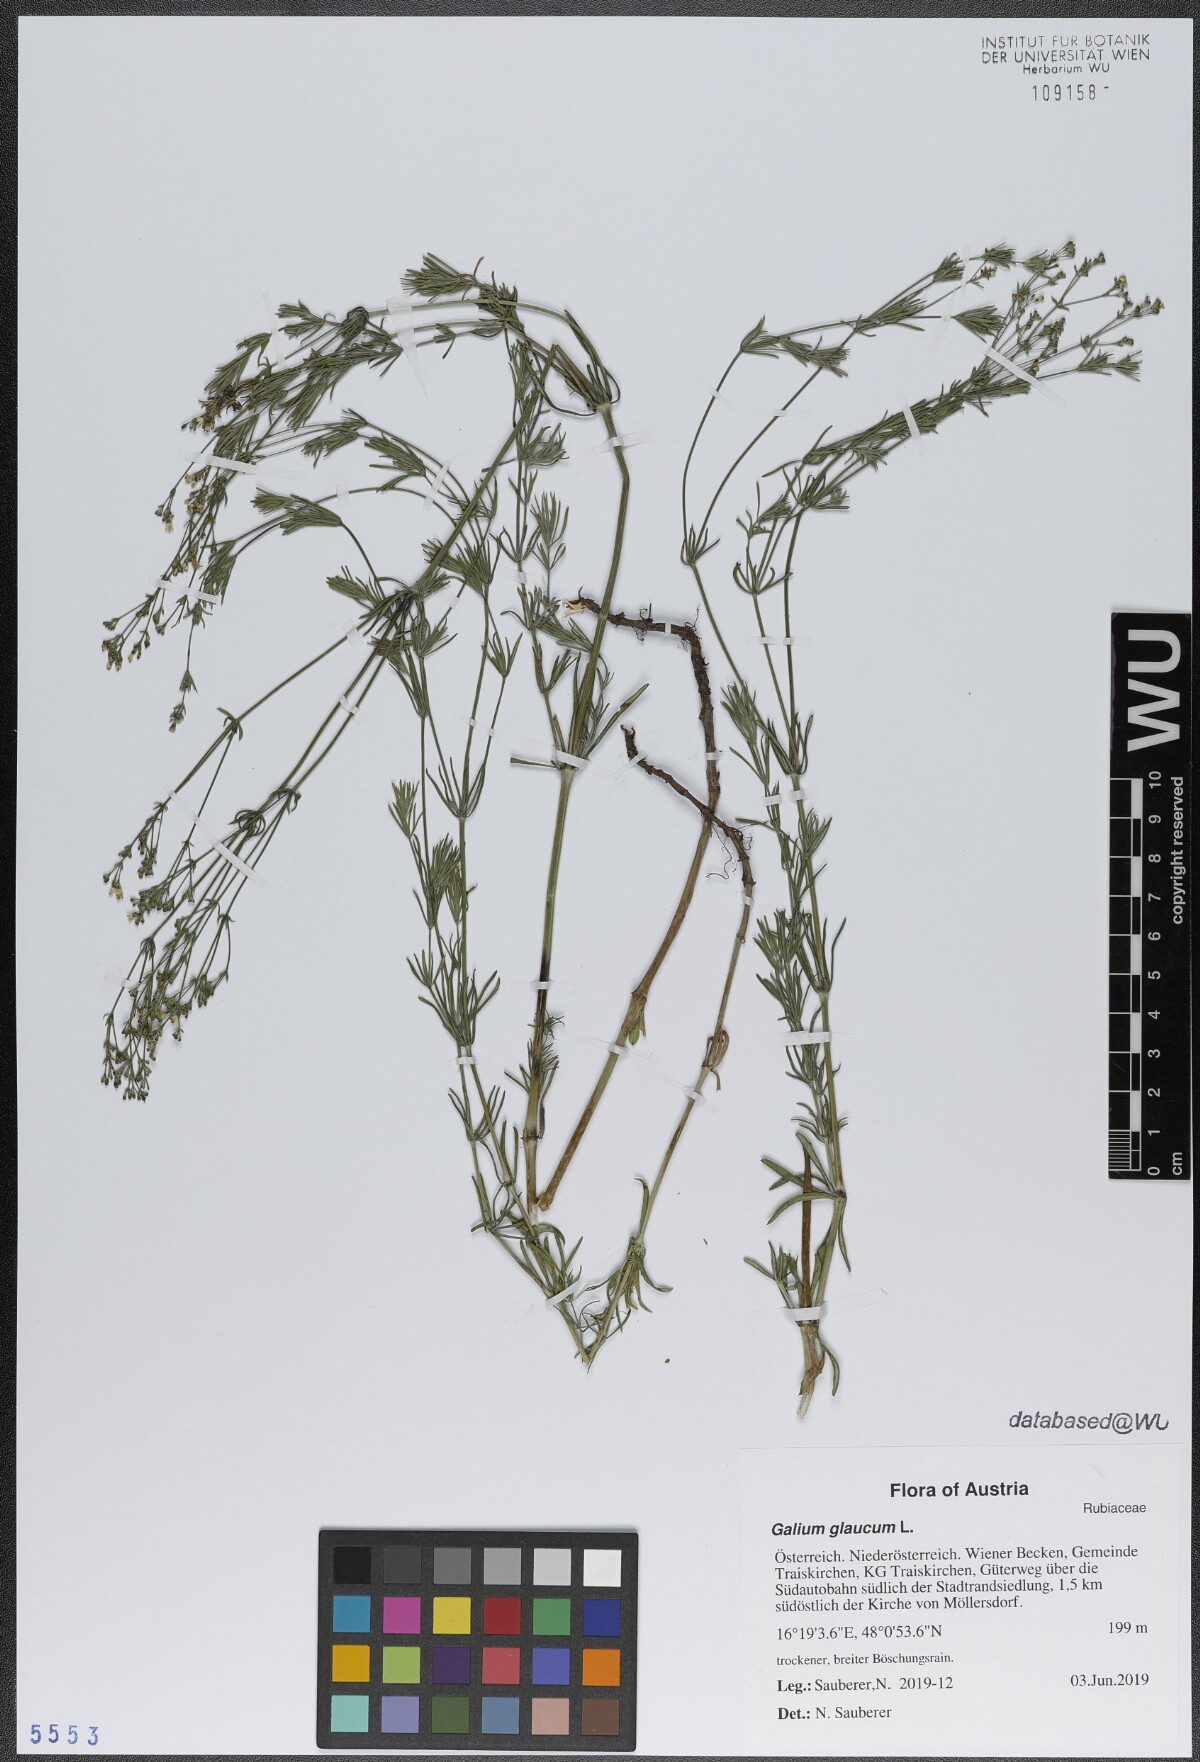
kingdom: Plantae
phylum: Tracheophyta
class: Magnoliopsida
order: Gentianales
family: Rubiaceae
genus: Galium
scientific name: Galium glaucum
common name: Waxy bedstraw
